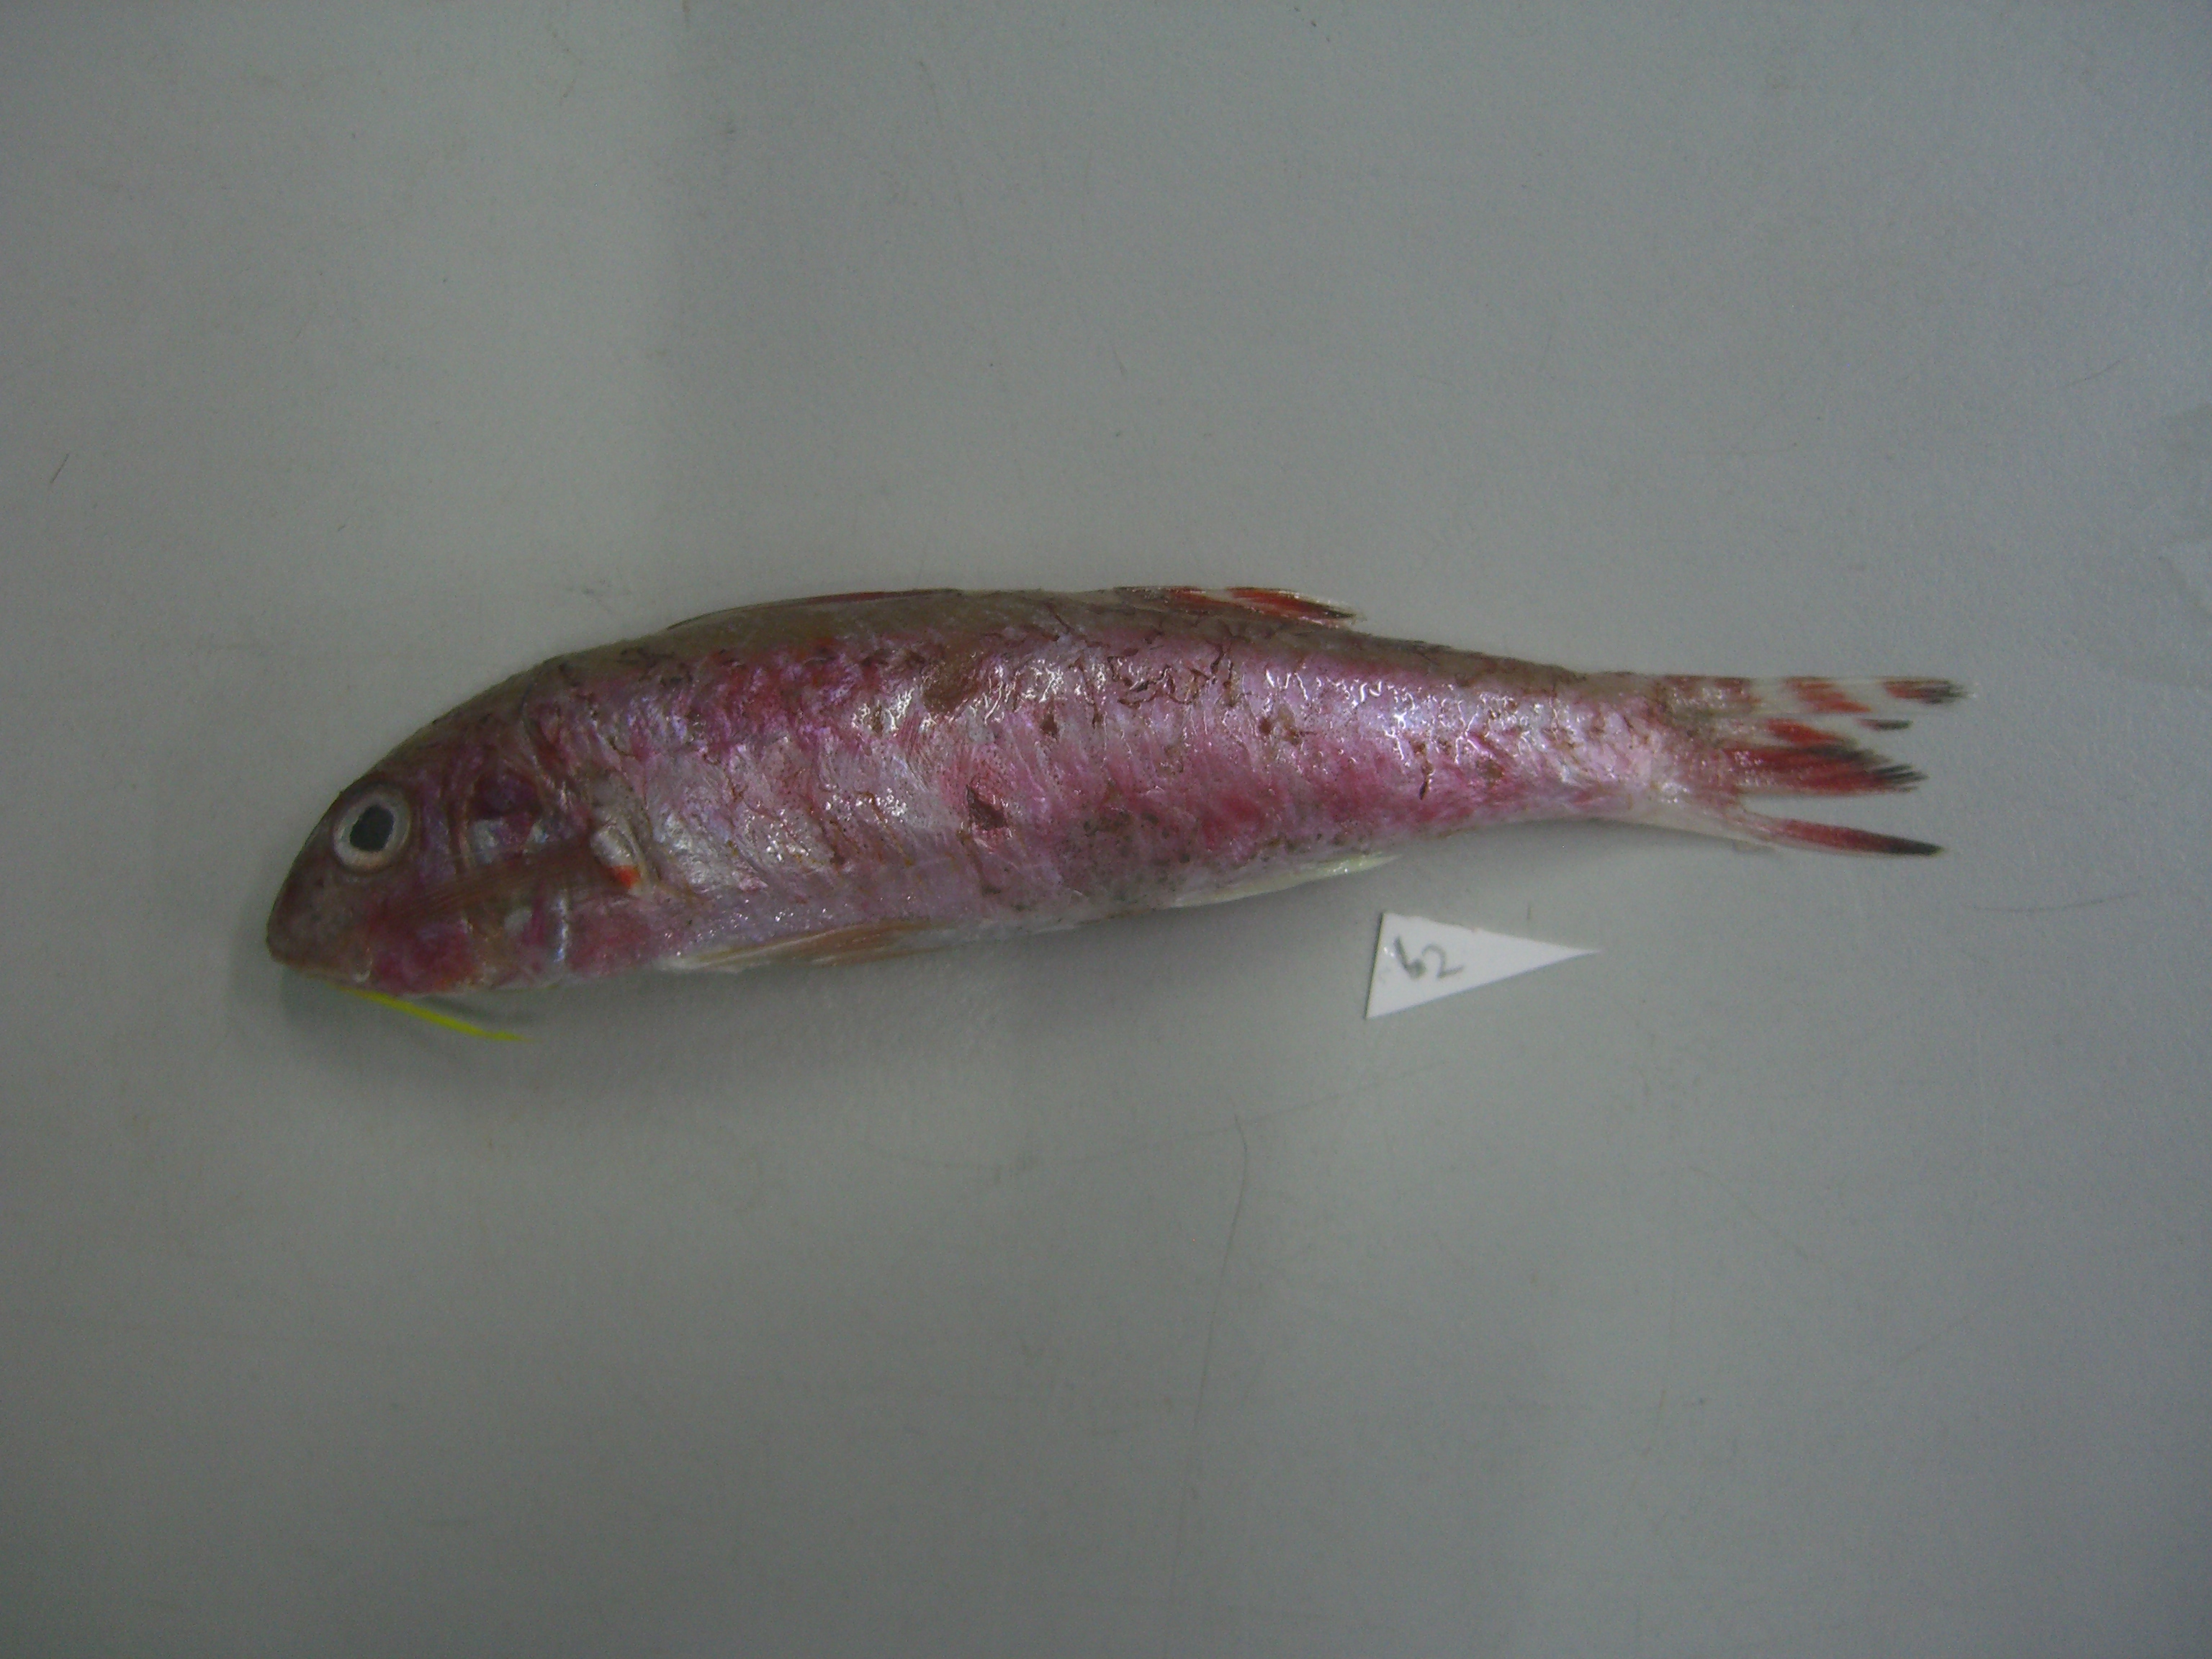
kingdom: Animalia
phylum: Chordata
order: Perciformes
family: Mullidae
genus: Upeneus
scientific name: Upeneus japonicus
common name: Bensasi goatfish
